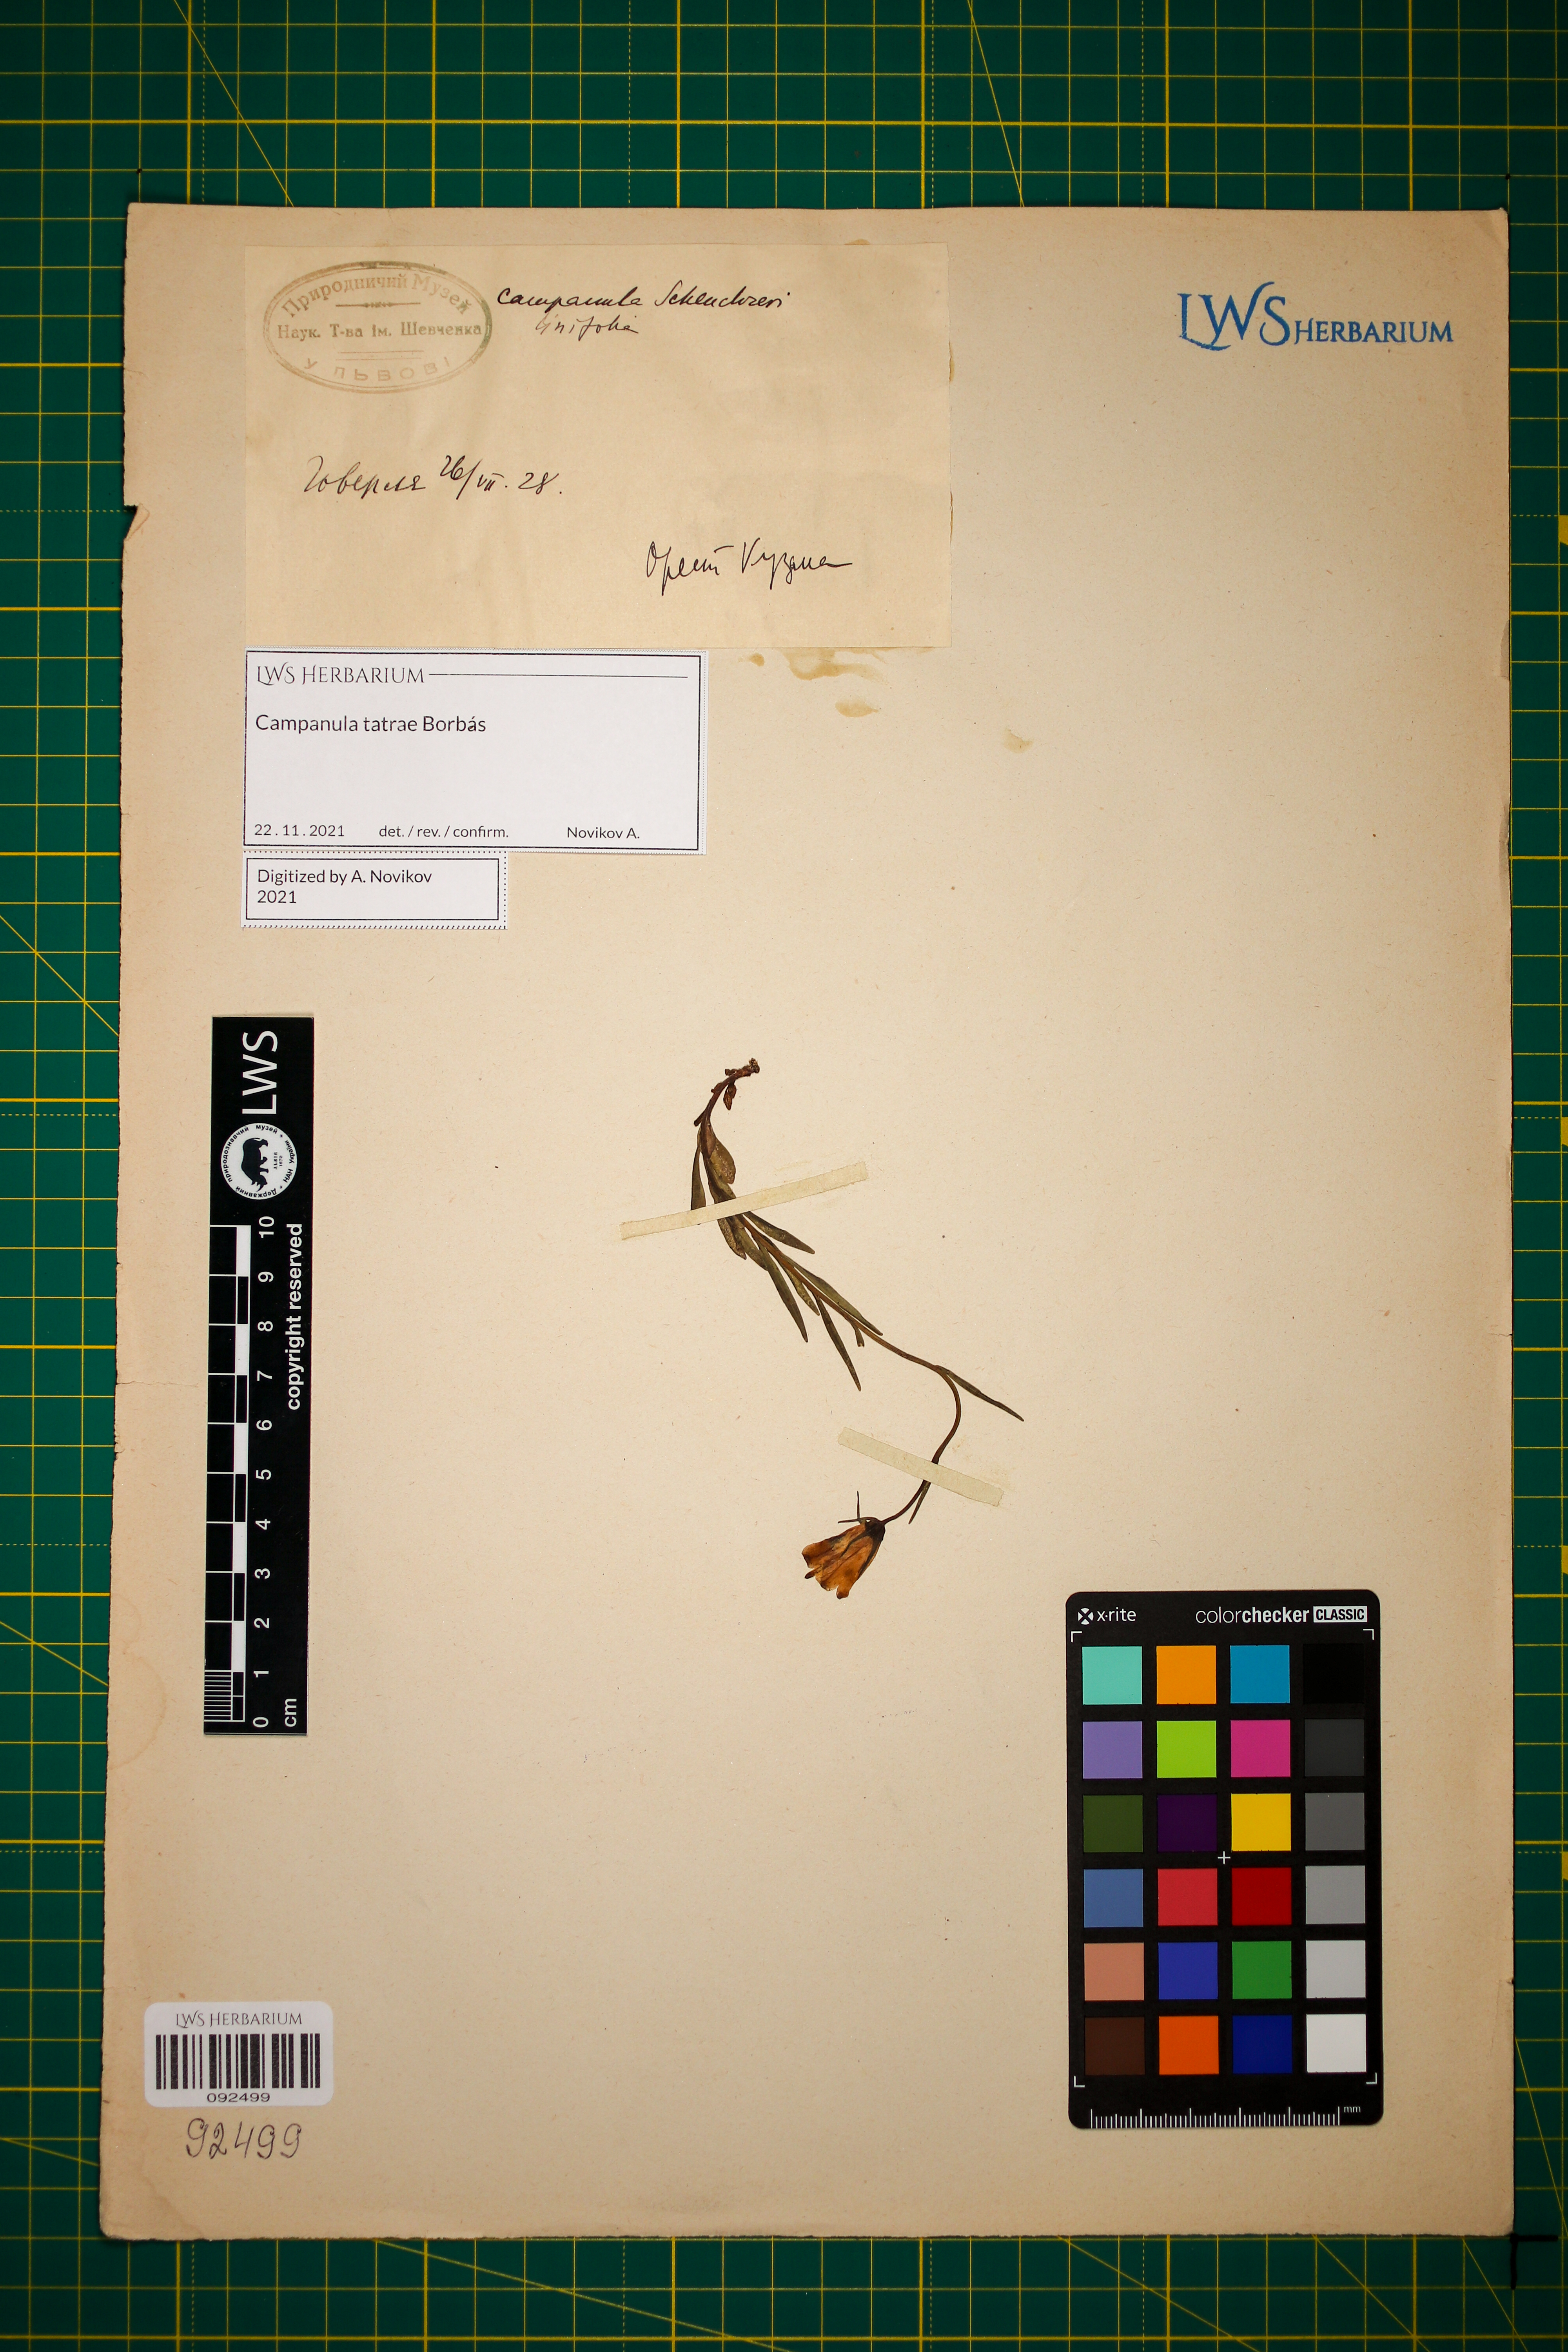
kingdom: Plantae
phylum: Tracheophyta
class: Magnoliopsida
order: Asterales
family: Campanulaceae
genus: Campanula
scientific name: Campanula tatrae
